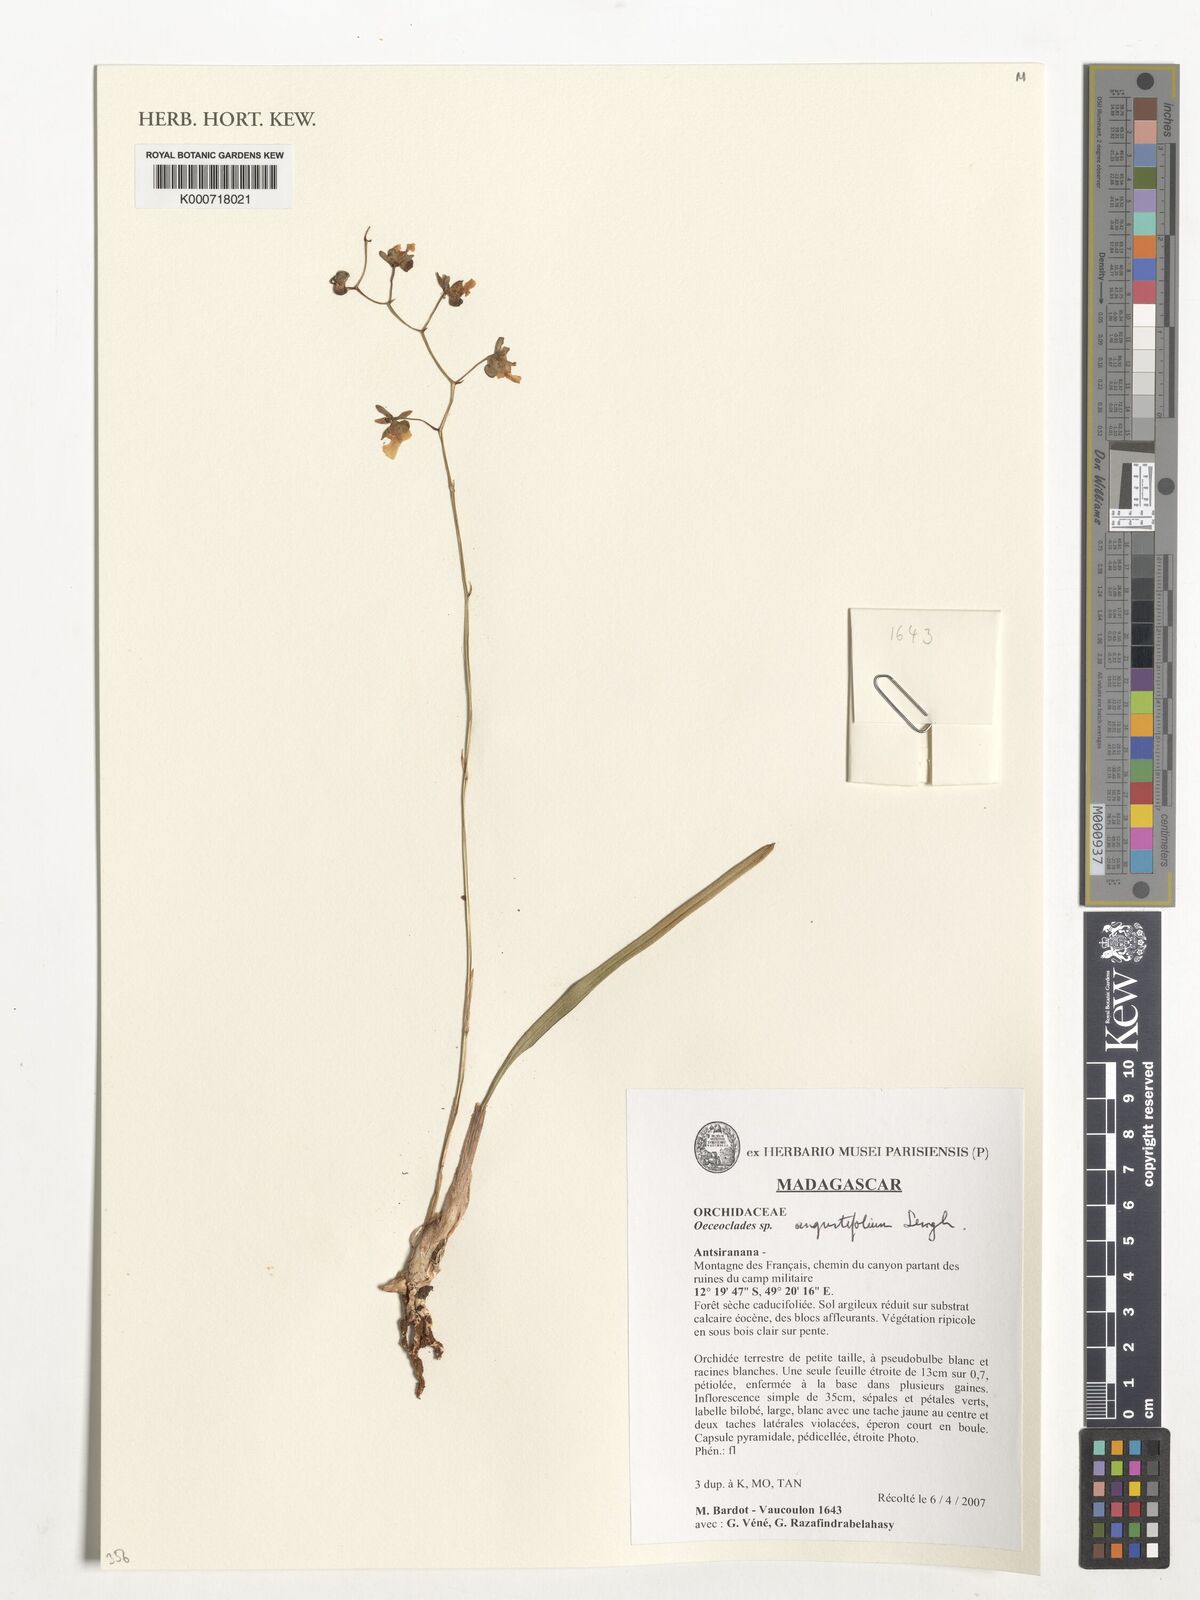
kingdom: Plantae
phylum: Tracheophyta
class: Liliopsida
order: Asparagales
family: Orchidaceae
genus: Eulophia
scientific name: Eulophia
